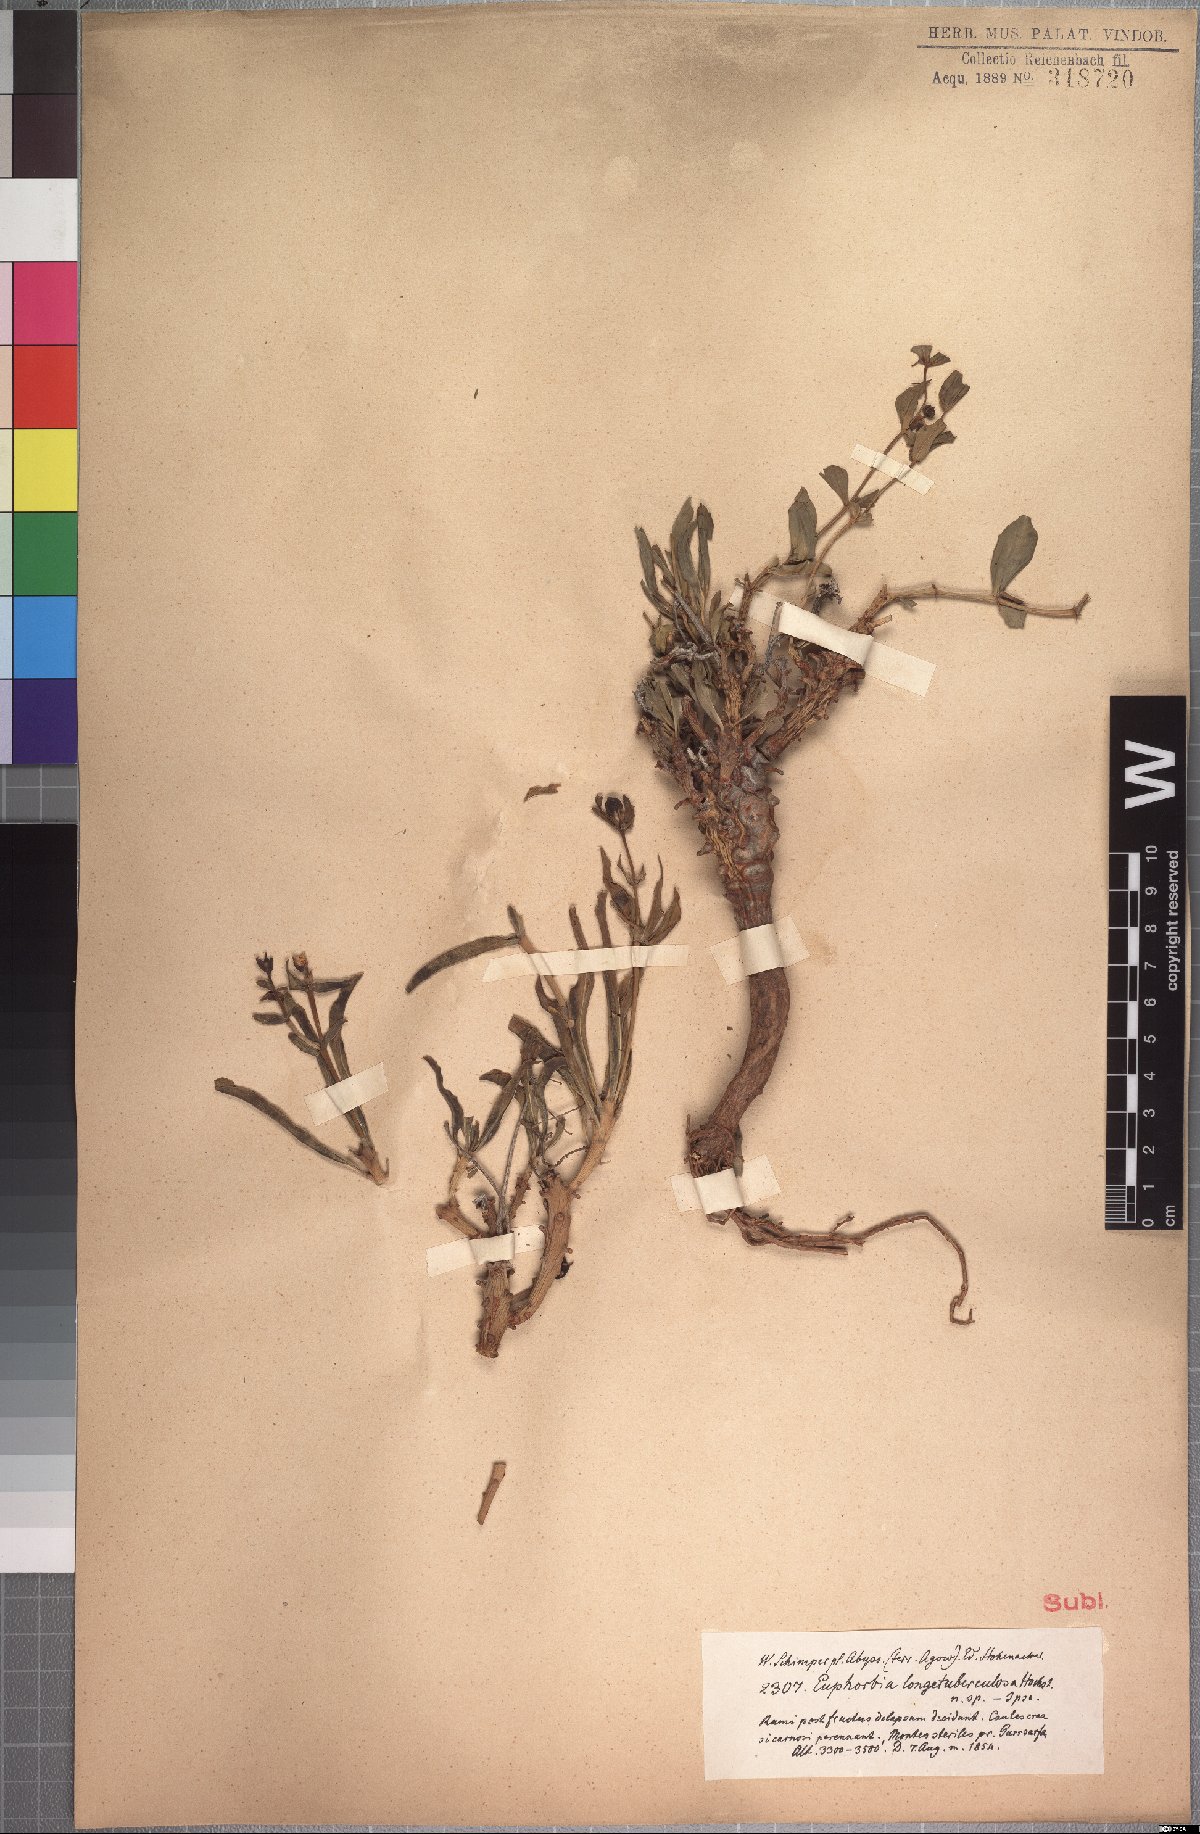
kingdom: Plantae
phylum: Tracheophyta
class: Magnoliopsida
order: Malpighiales
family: Euphorbiaceae
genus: Euphorbia
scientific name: Euphorbia longituberculosa
